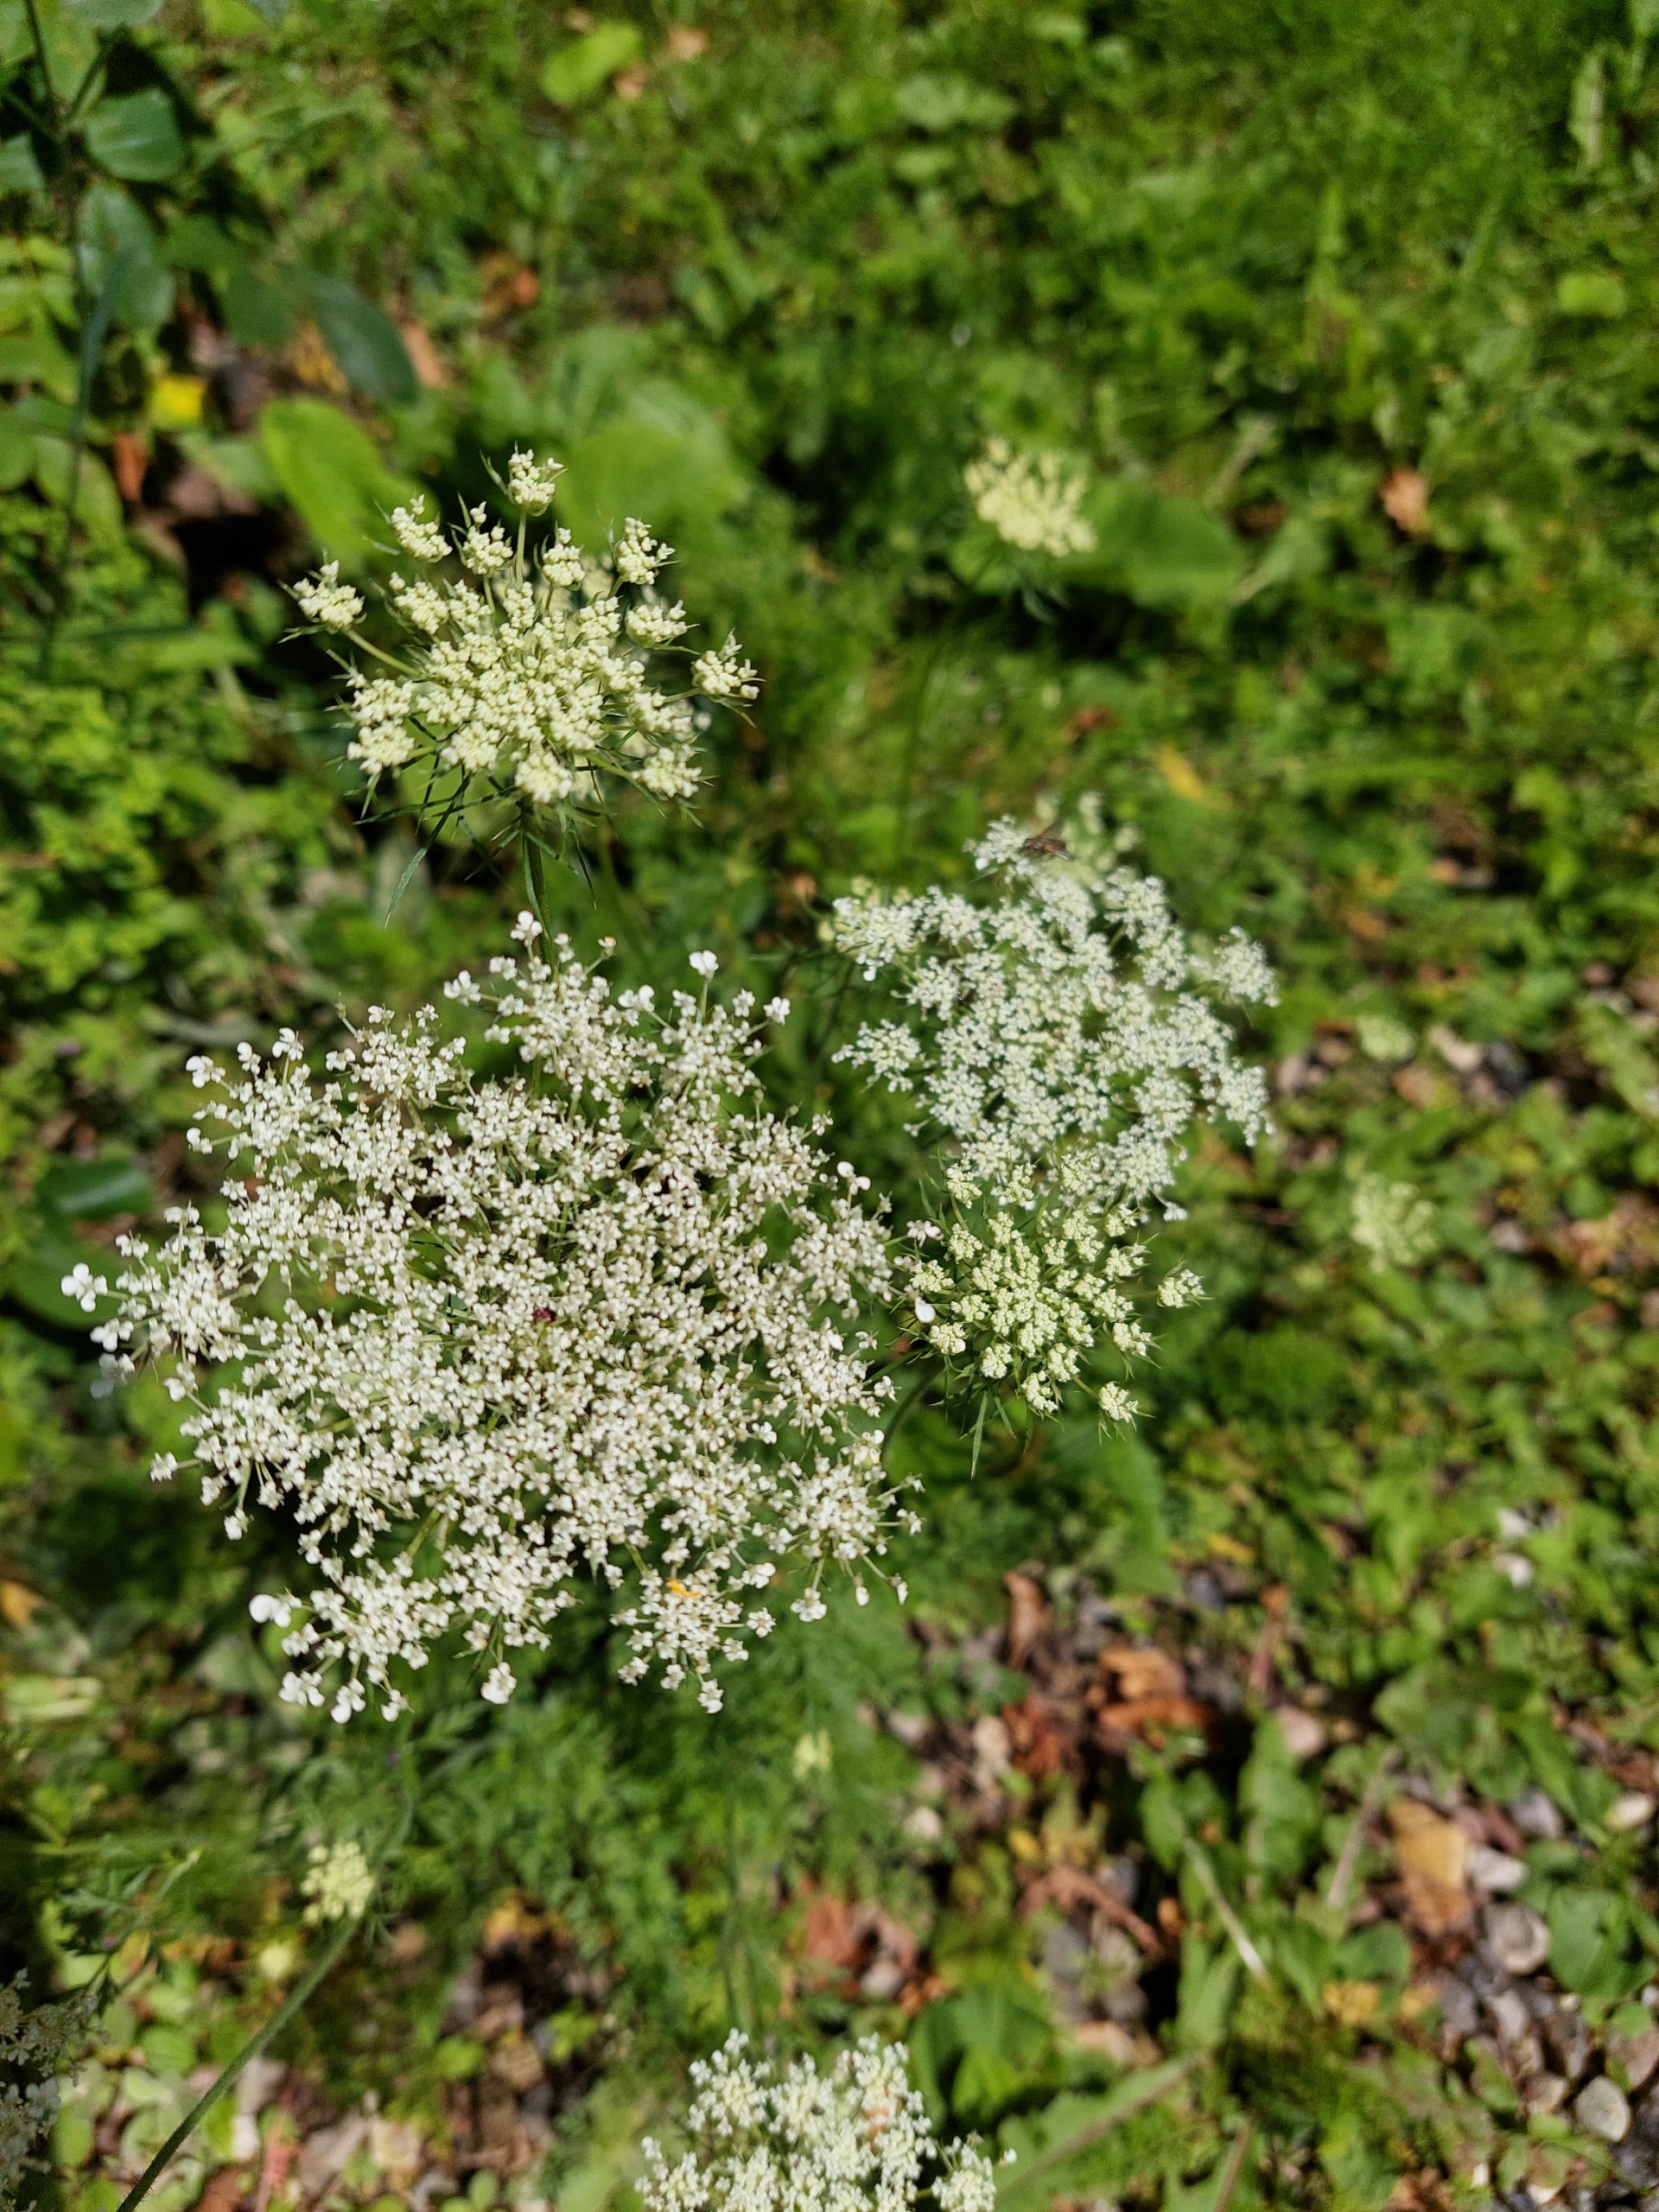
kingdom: Plantae
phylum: Tracheophyta
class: Magnoliopsida
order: Apiales
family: Apiaceae
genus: Daucus
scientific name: Daucus carota
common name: Gulerod
